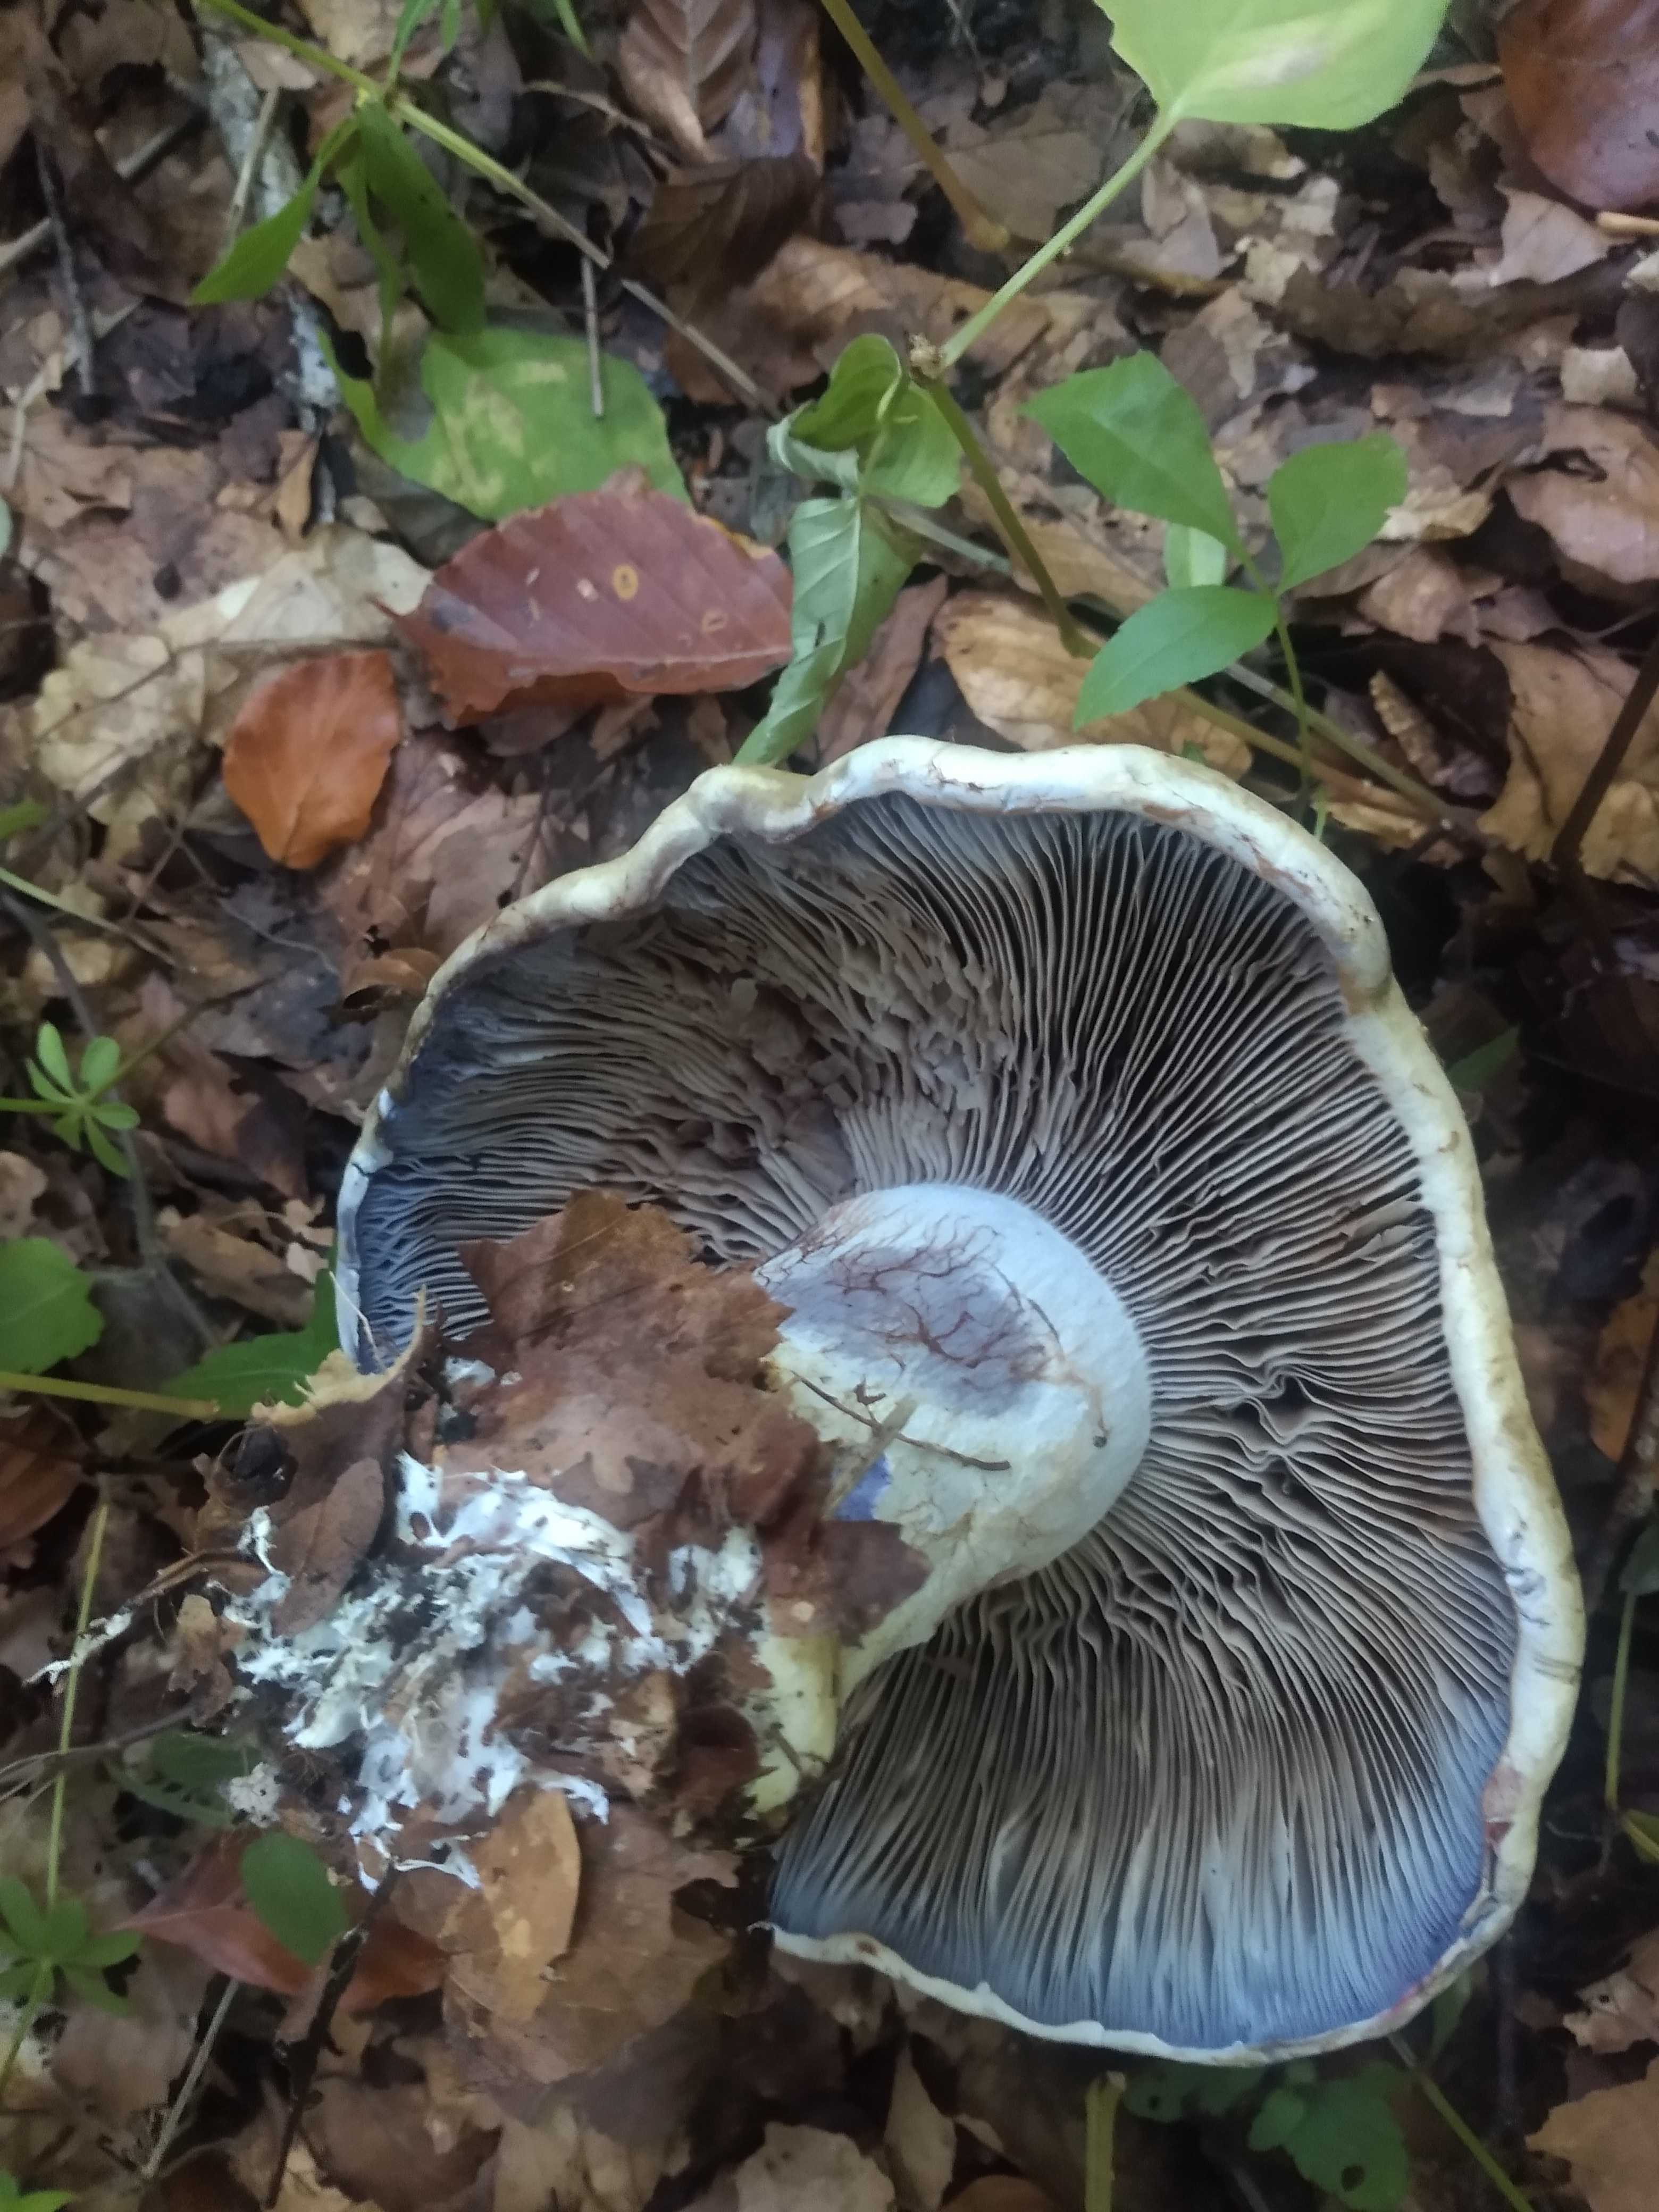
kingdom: Fungi
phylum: Basidiomycota
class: Agaricomycetes
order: Agaricales
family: Cortinariaceae
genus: Cortinarius
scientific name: Cortinarius anserinus
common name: bøge-slørhat
